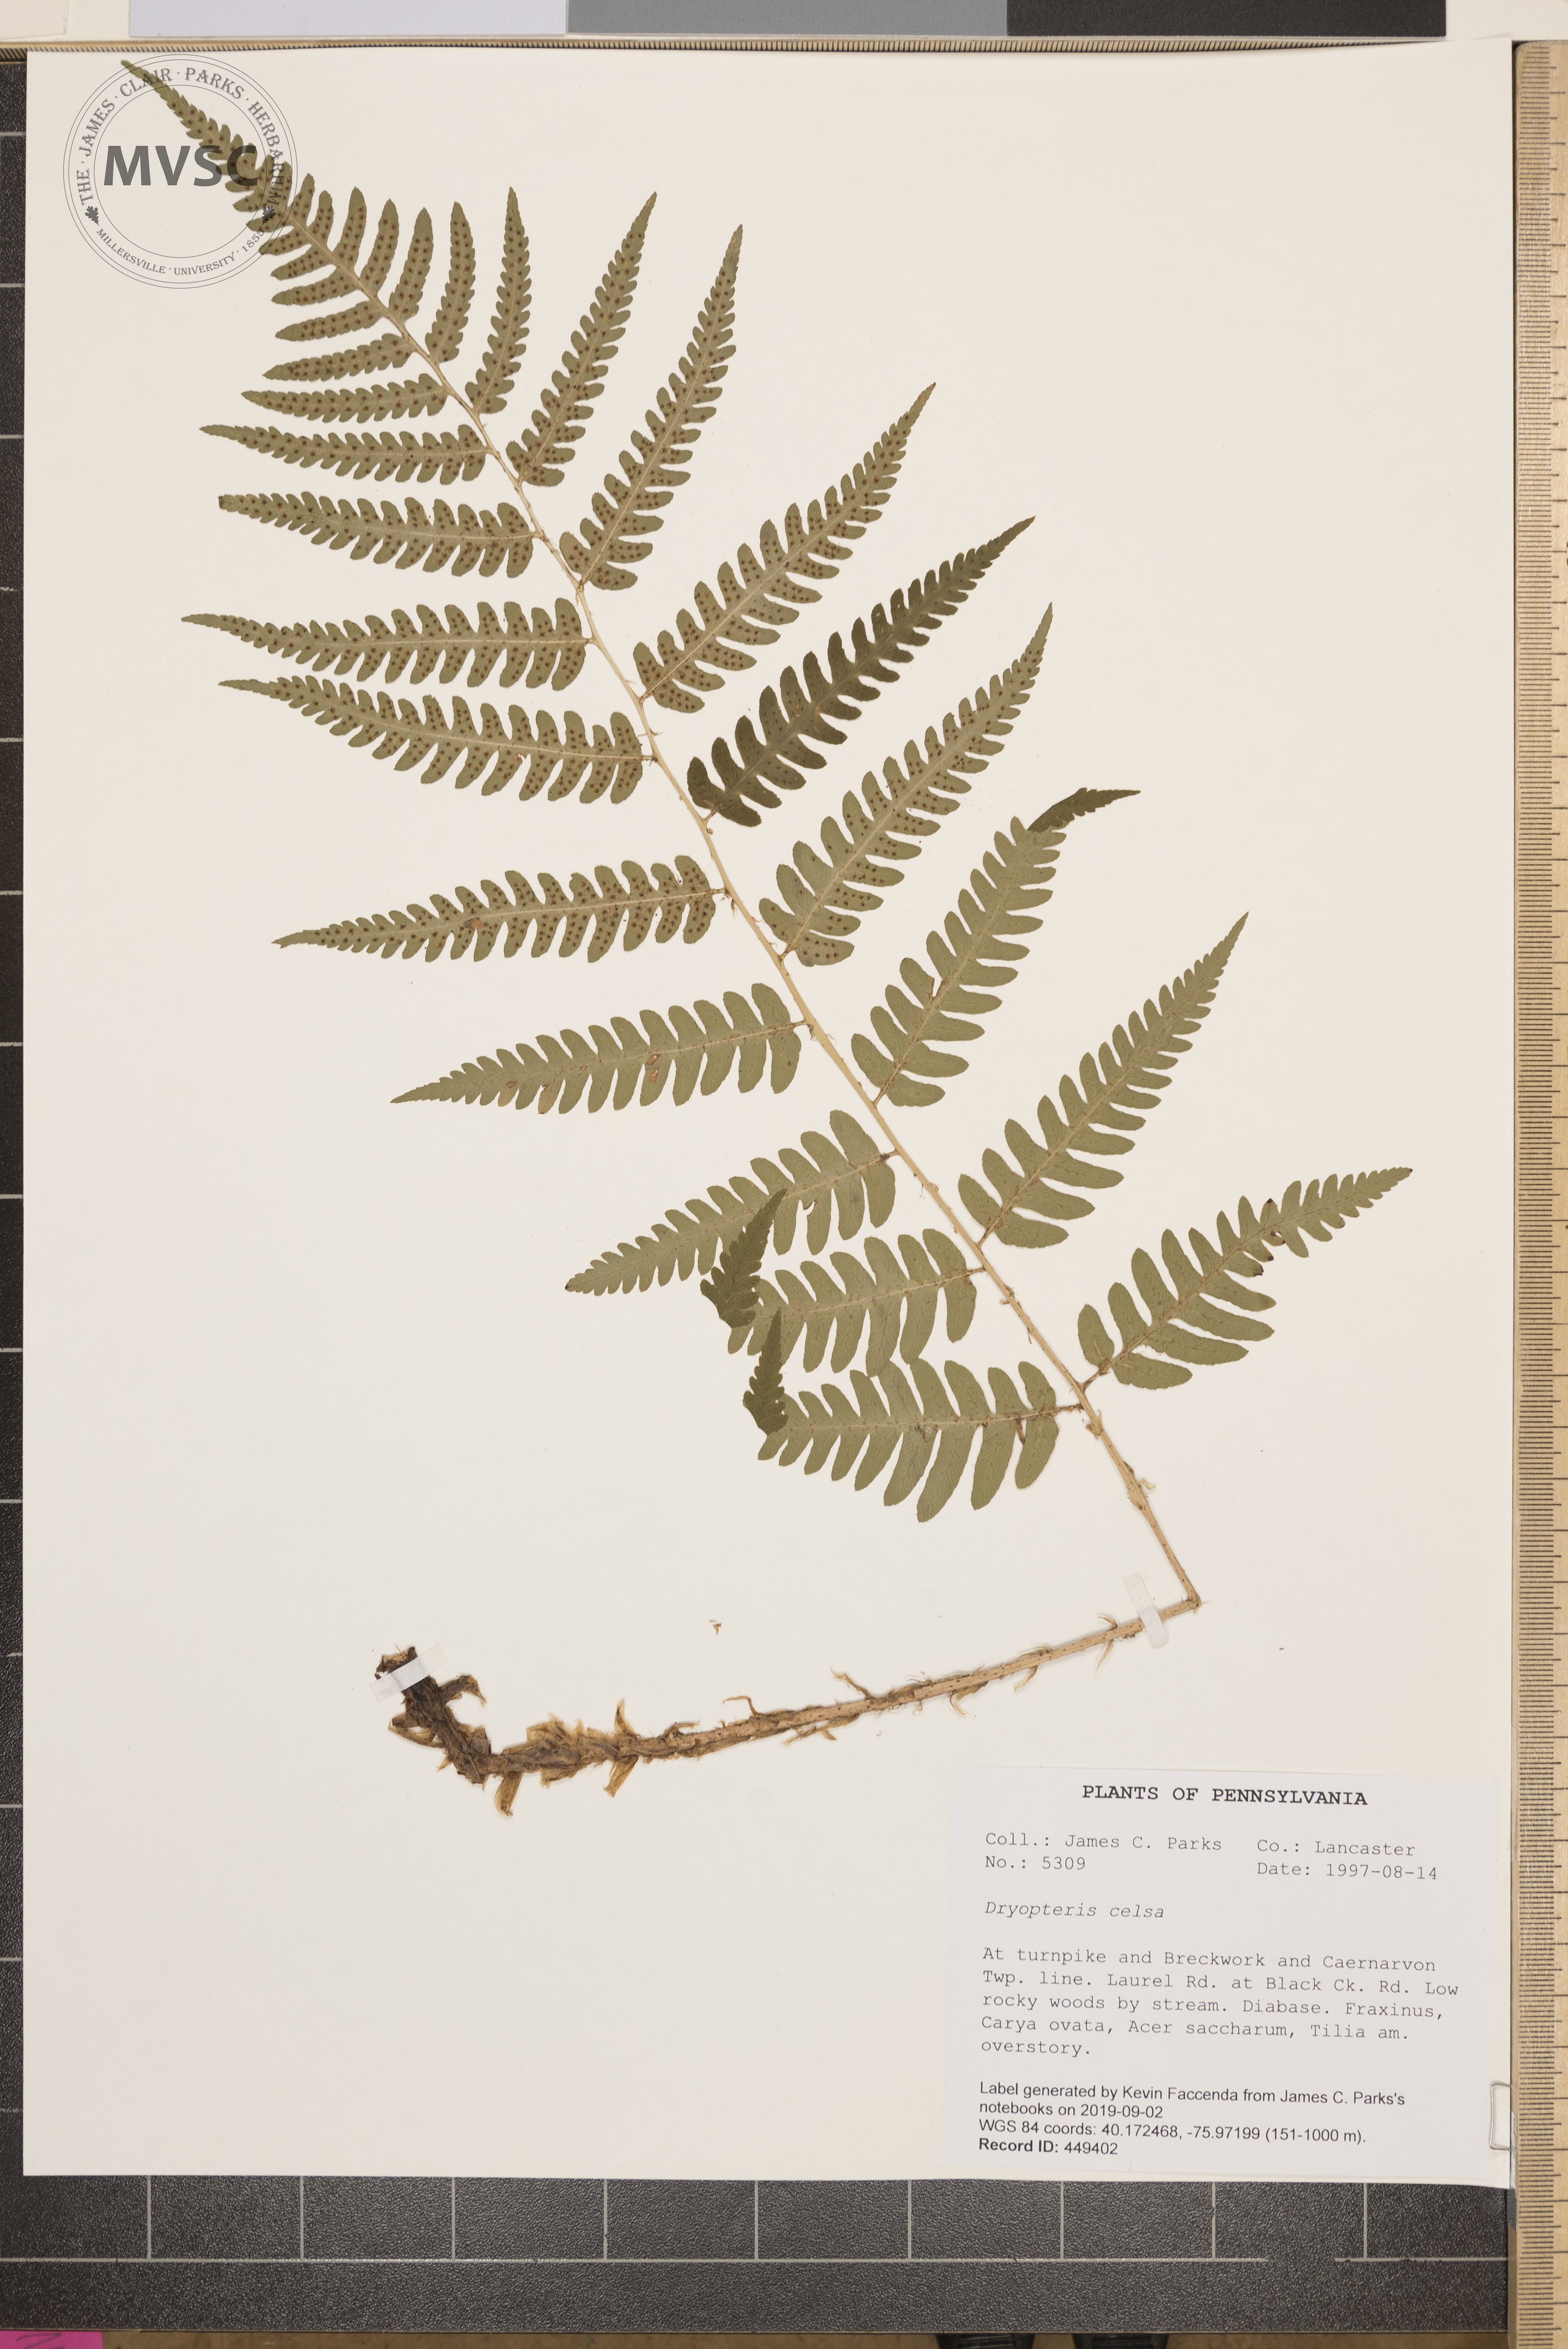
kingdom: Plantae
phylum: Tracheophyta
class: Polypodiopsida
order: Polypodiales
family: Dryopteridaceae
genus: Dryopteris
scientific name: Dryopteris celsa
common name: Log fern
